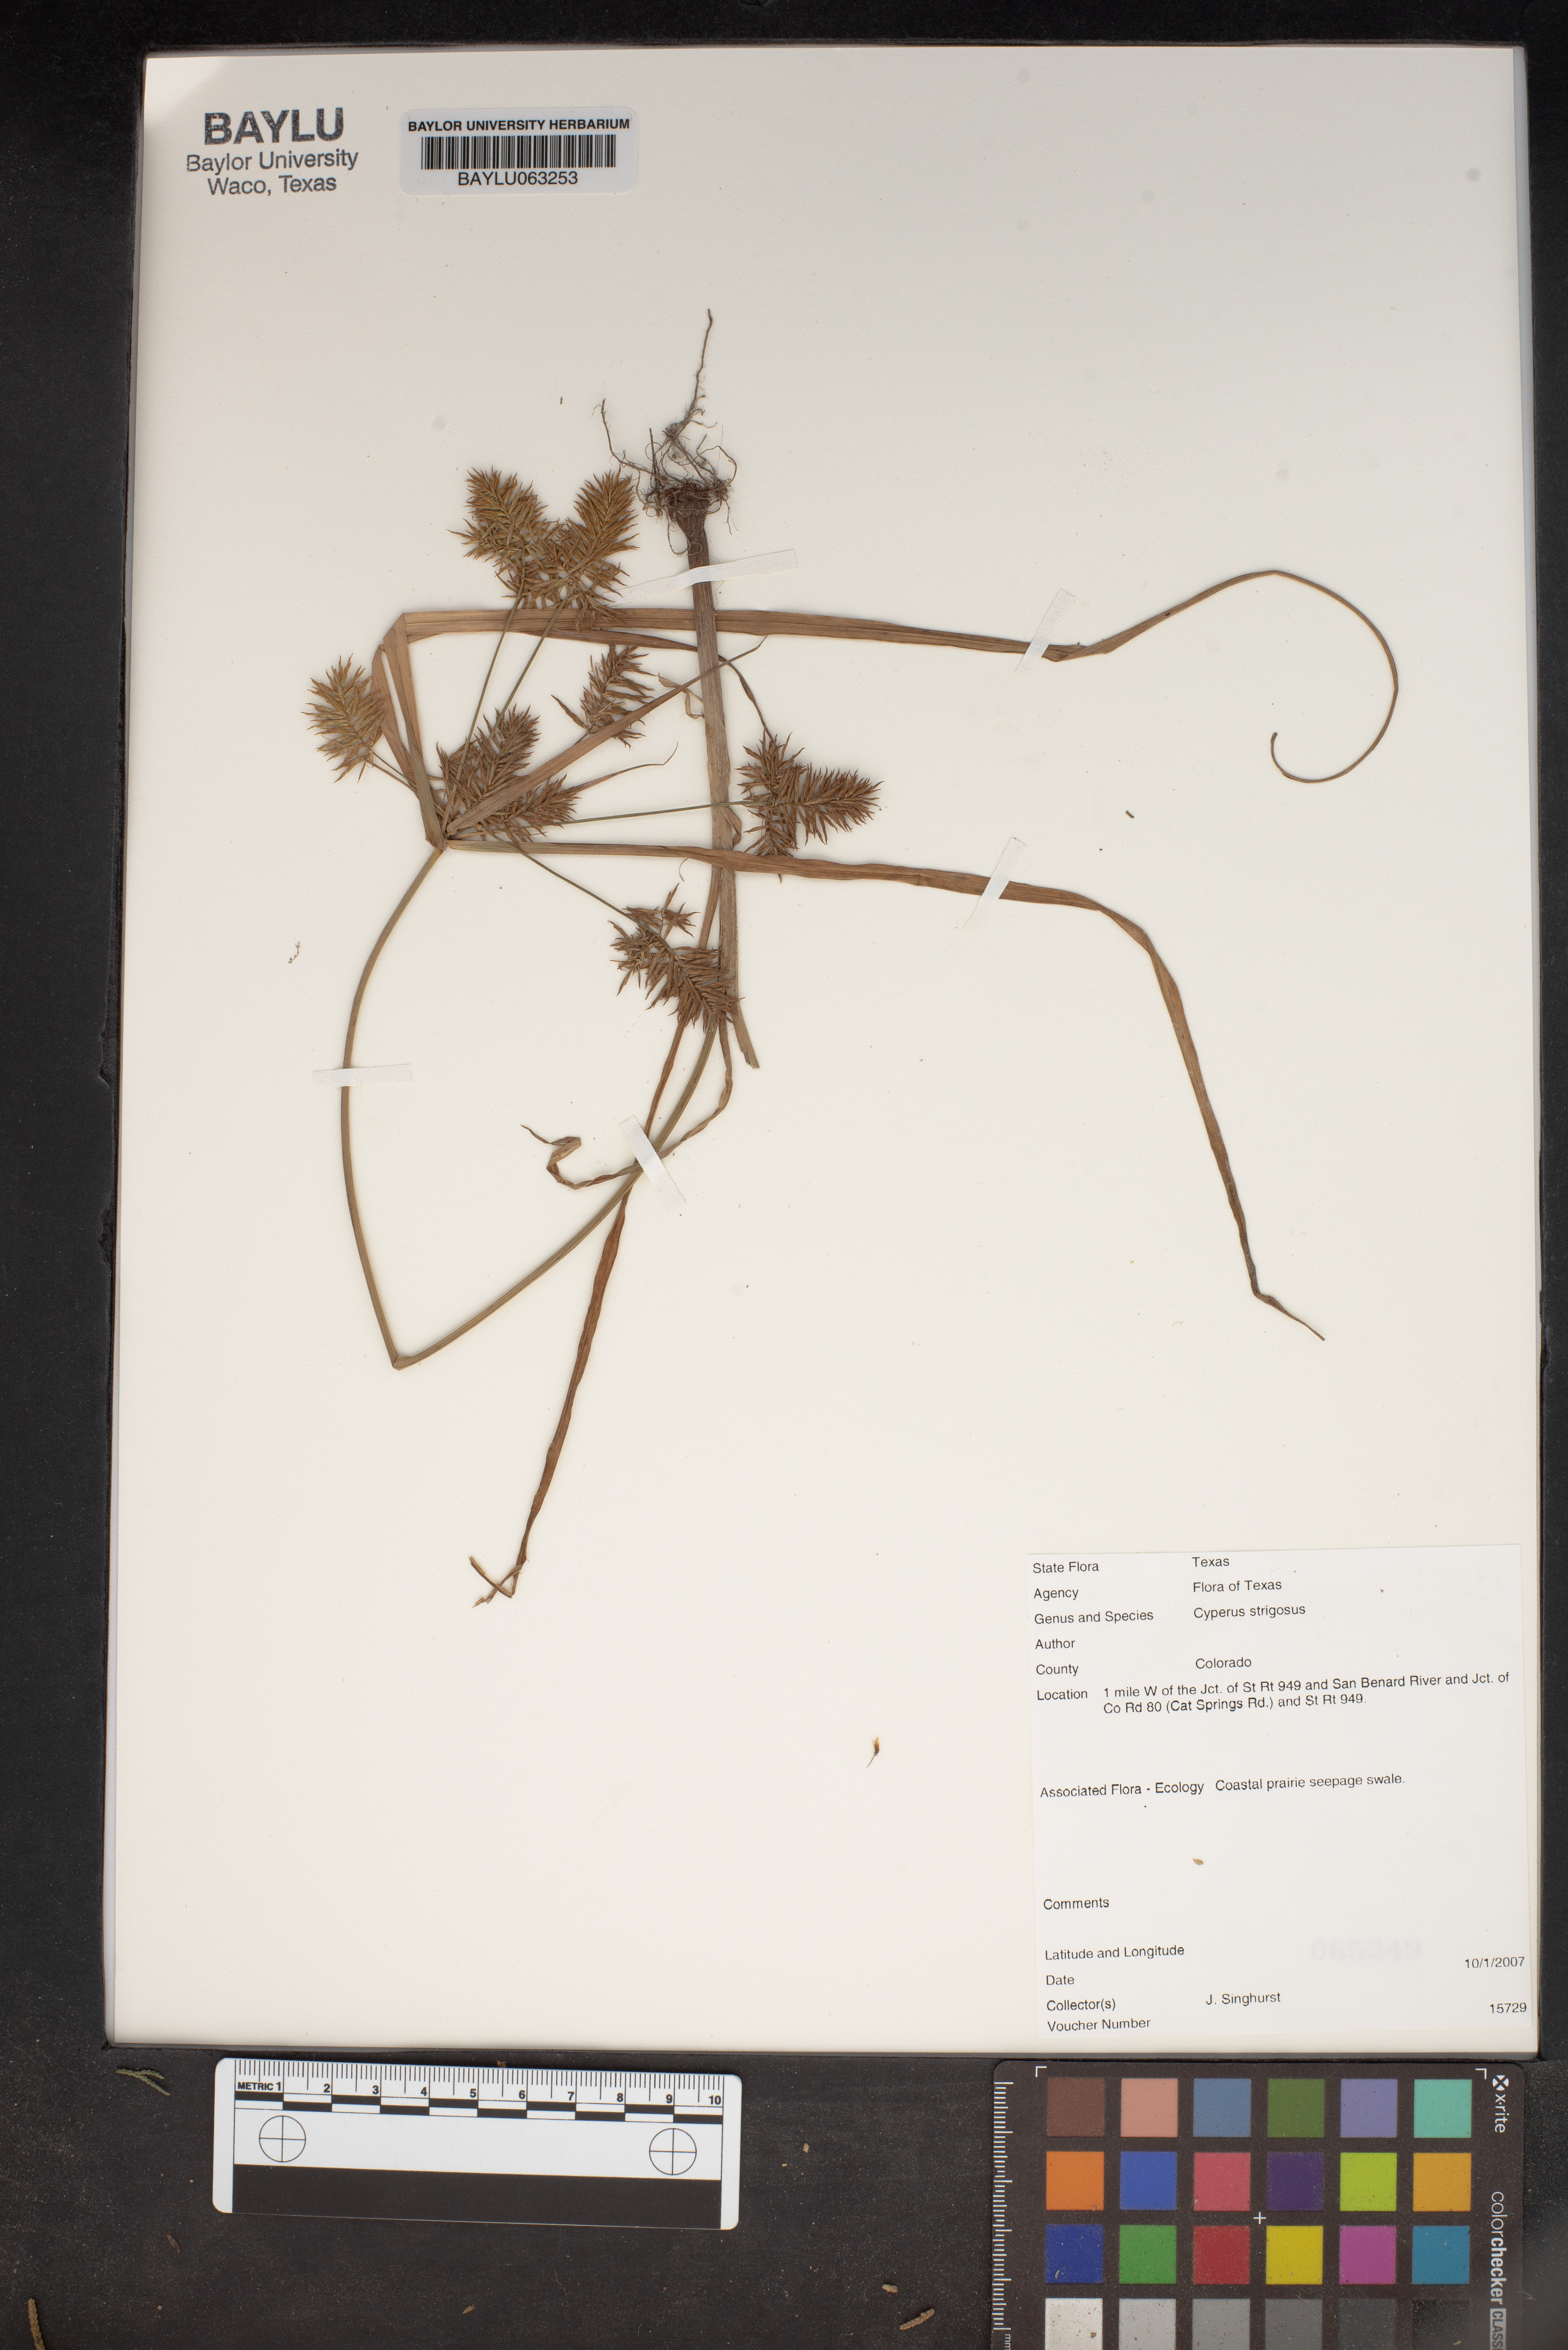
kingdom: Plantae
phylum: Tracheophyta
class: Liliopsida
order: Poales
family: Cyperaceae
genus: Cyperus
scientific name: Cyperus strigosus
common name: False nutsedge
